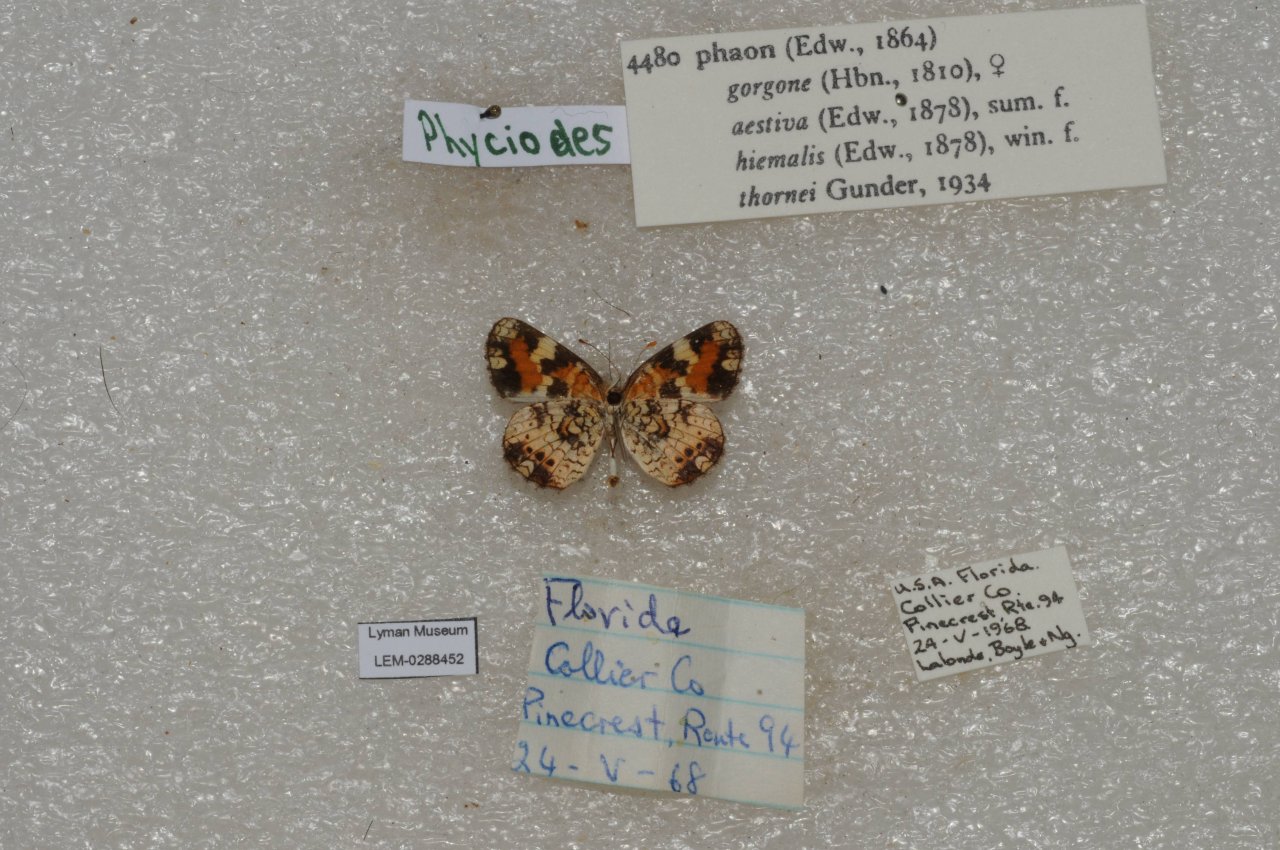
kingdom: Animalia
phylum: Arthropoda
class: Insecta
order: Lepidoptera
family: Nymphalidae
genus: Phyciodes
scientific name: Phyciodes phaon
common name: Phaon Crescent
